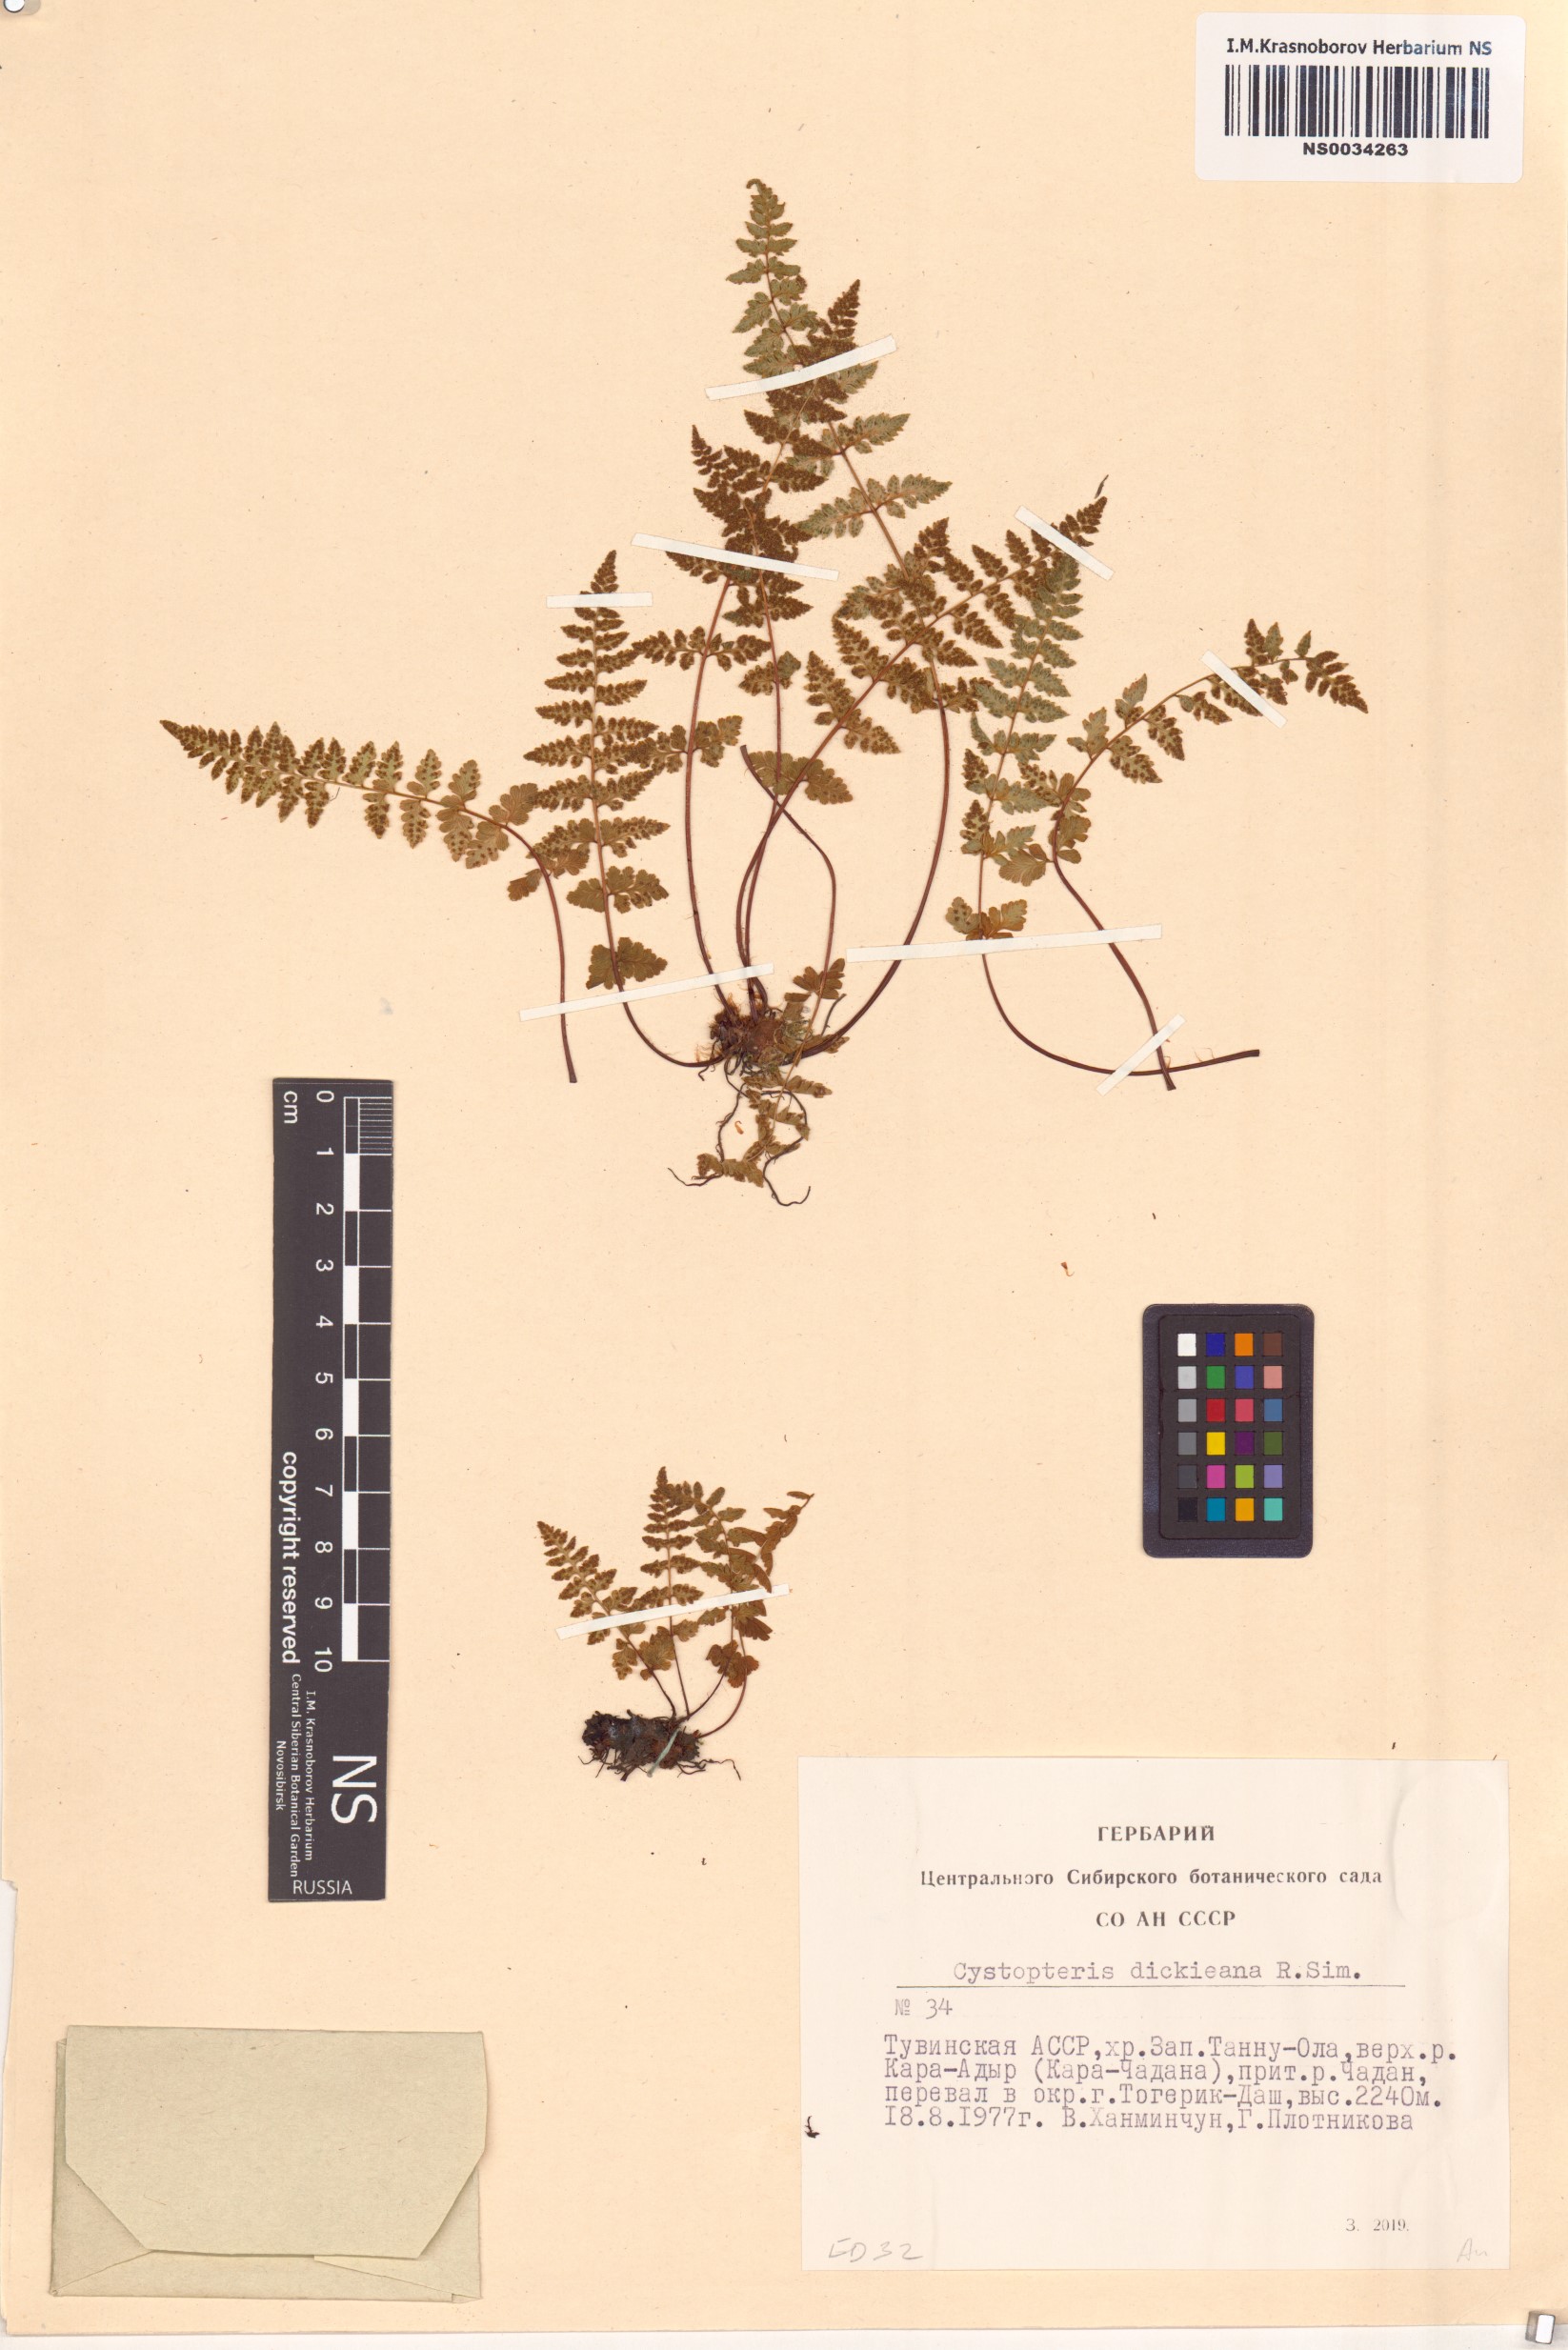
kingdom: Plantae
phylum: Tracheophyta
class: Polypodiopsida
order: Polypodiales
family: Cystopteridaceae
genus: Cystopteris
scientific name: Cystopteris dickieana
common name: Dickie's bladder-fern
